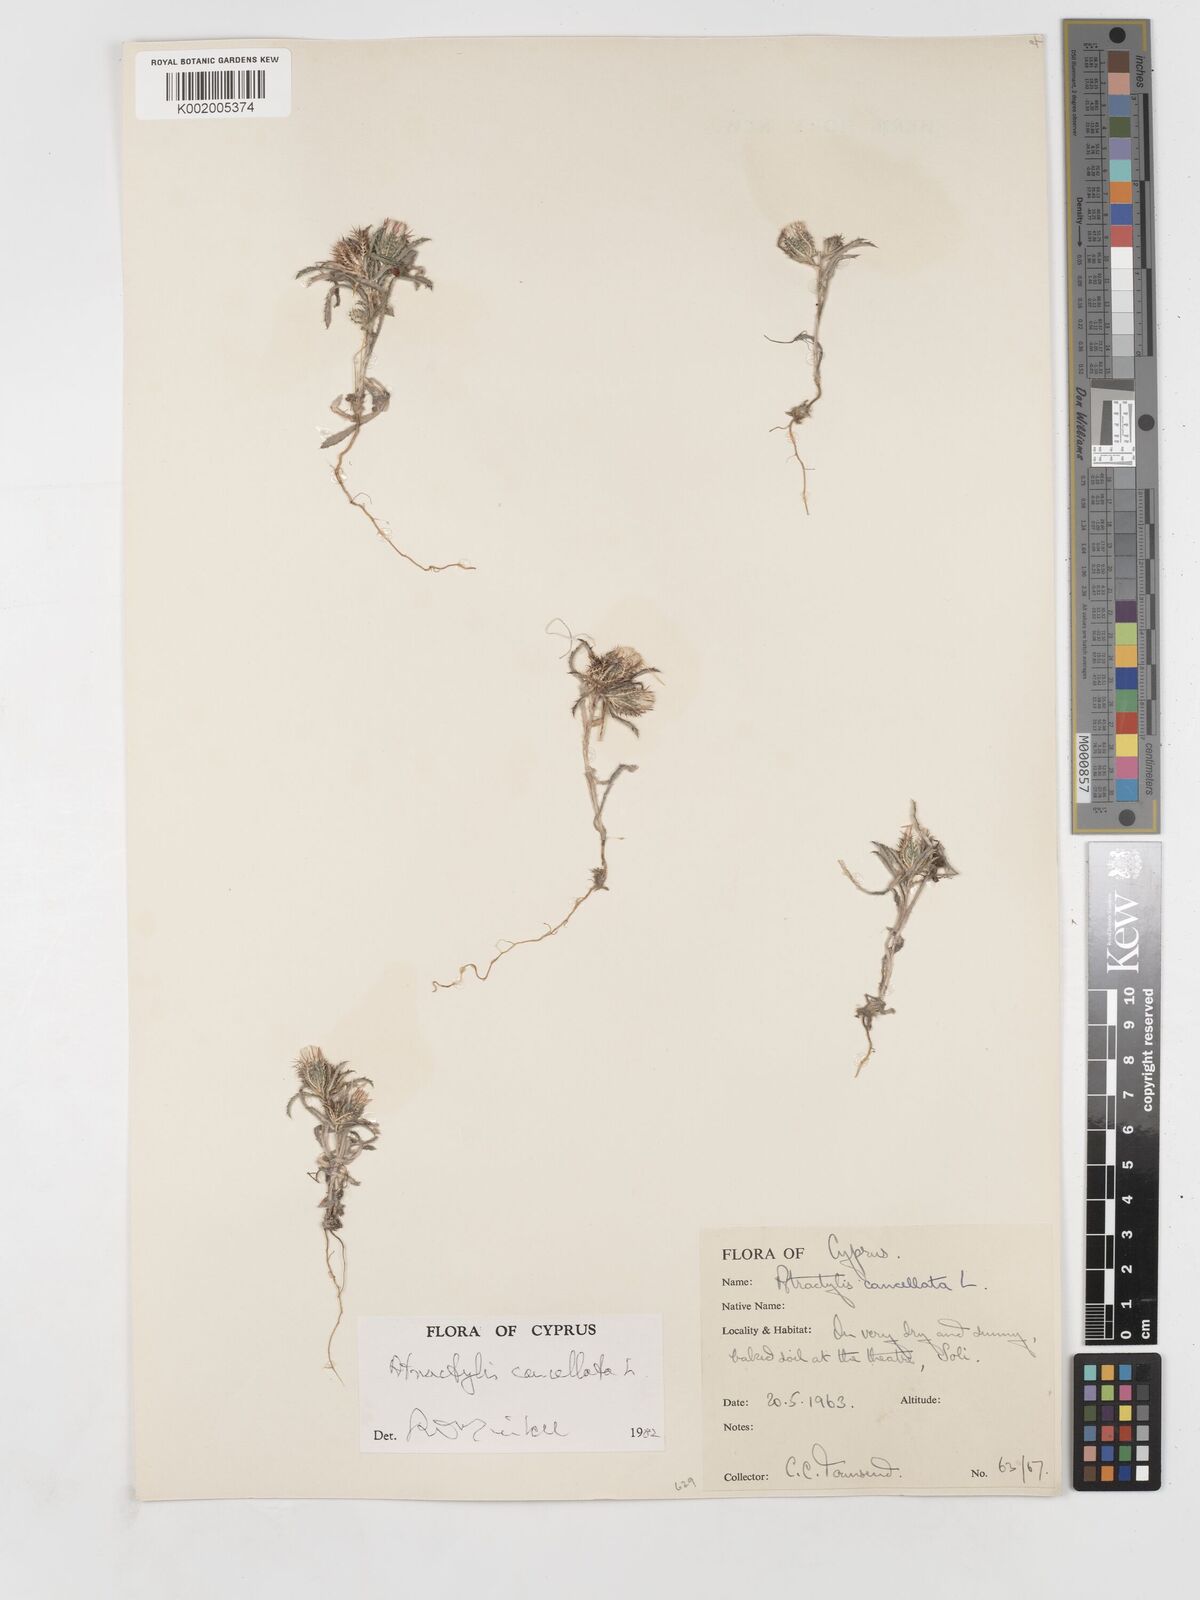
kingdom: Plantae
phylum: Tracheophyta
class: Magnoliopsida
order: Asterales
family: Asteraceae
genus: Atractylis
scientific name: Atractylis cancellata
